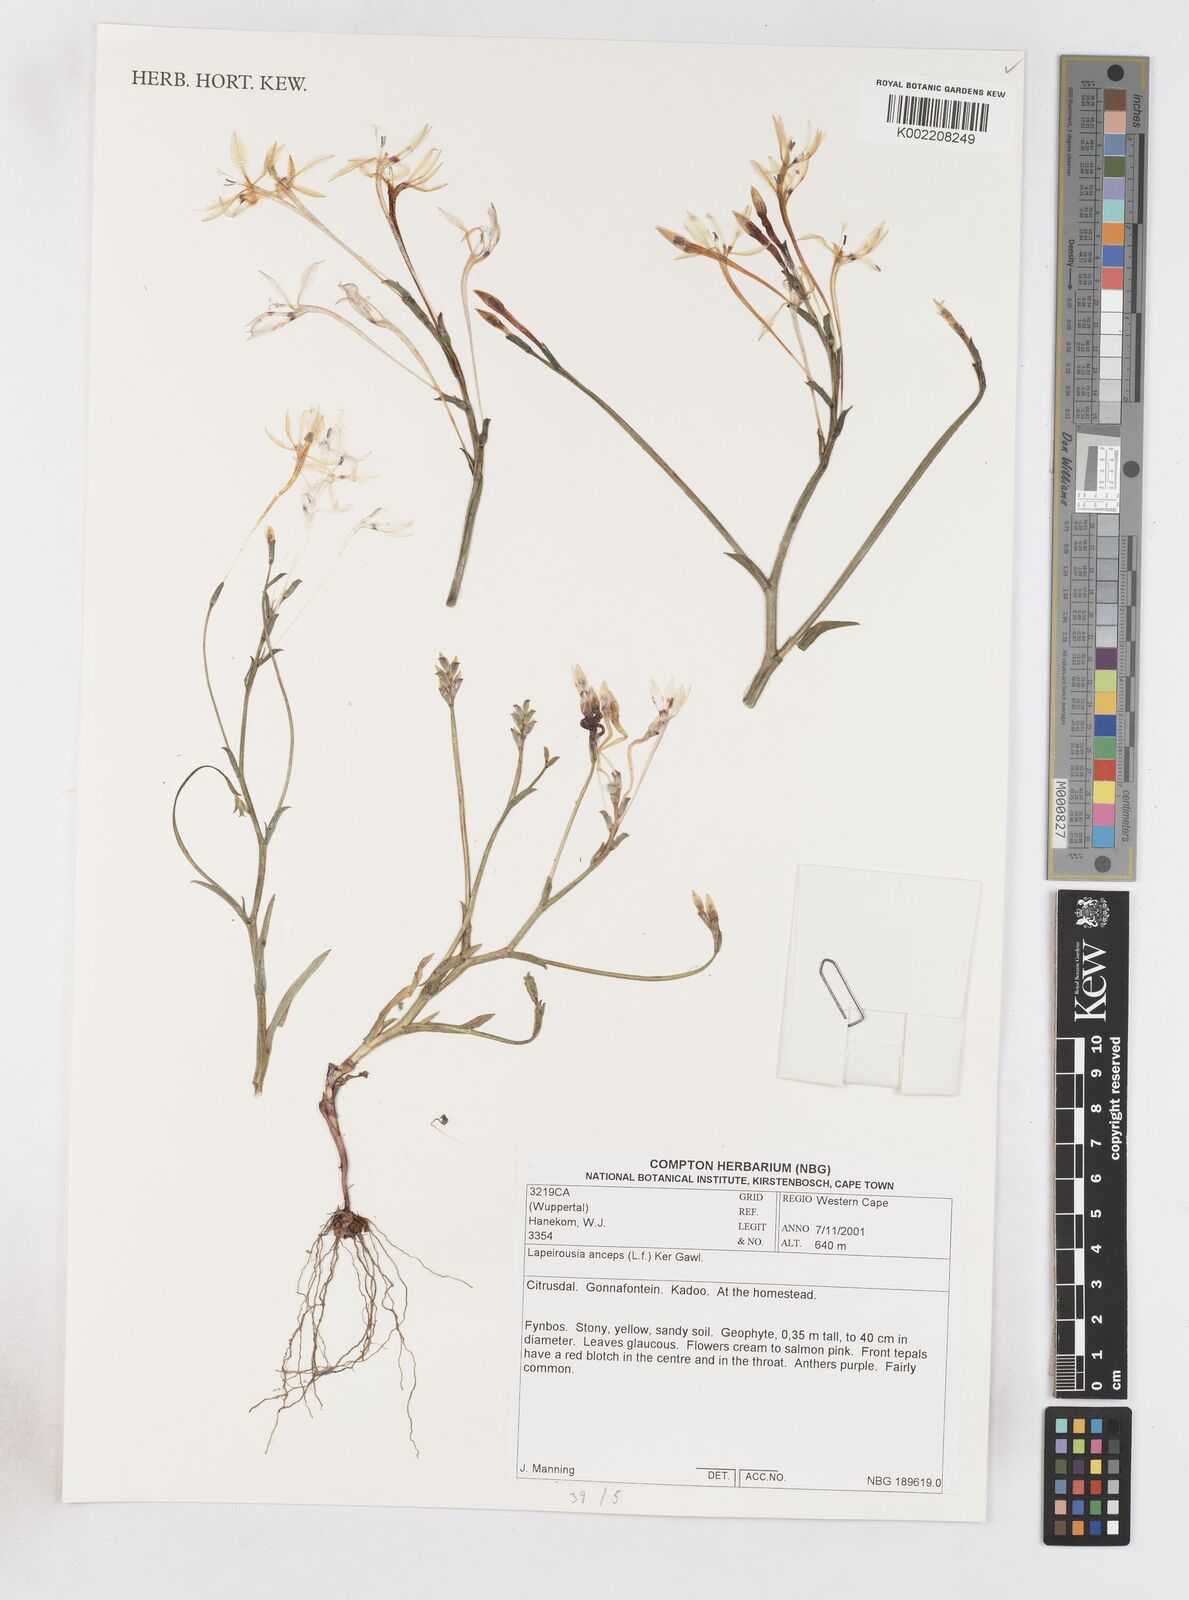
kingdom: Plantae
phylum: Tracheophyta
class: Liliopsida
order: Asparagales
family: Iridaceae
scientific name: Iridaceae
